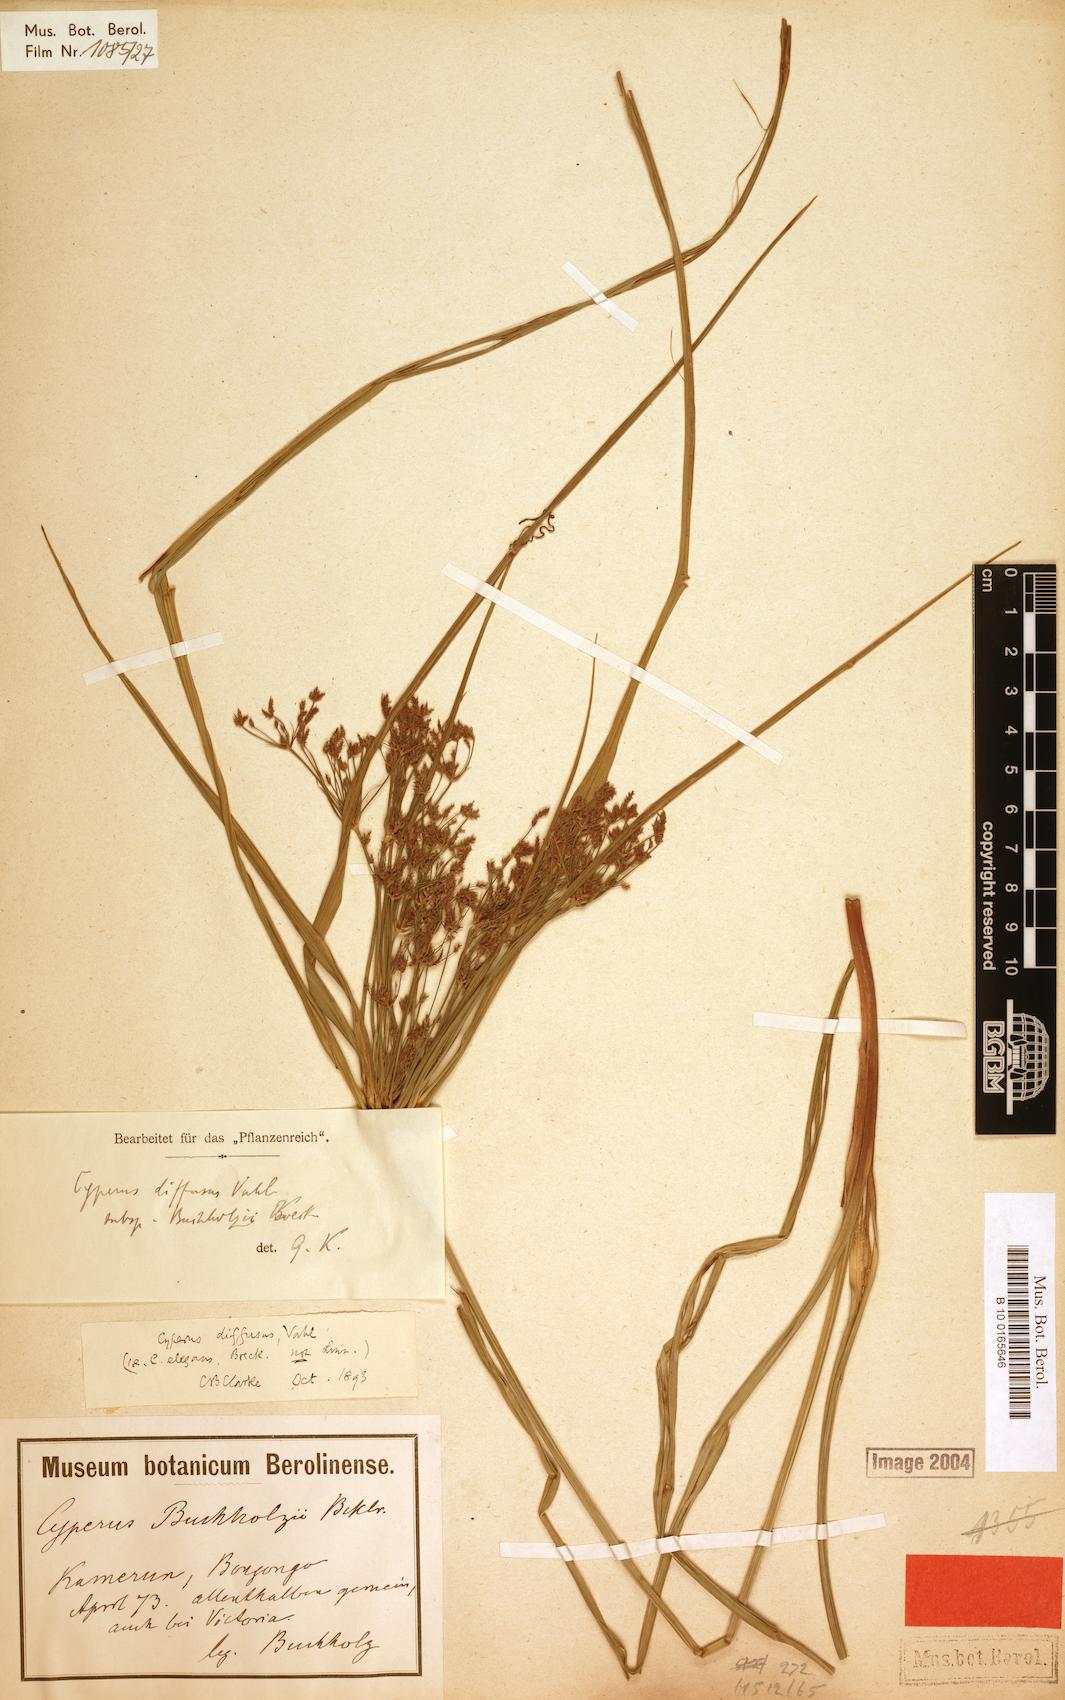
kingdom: Plantae
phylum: Tracheophyta
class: Liliopsida
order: Poales
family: Cyperaceae
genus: Cyperus
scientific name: Cyperus buchholzii
